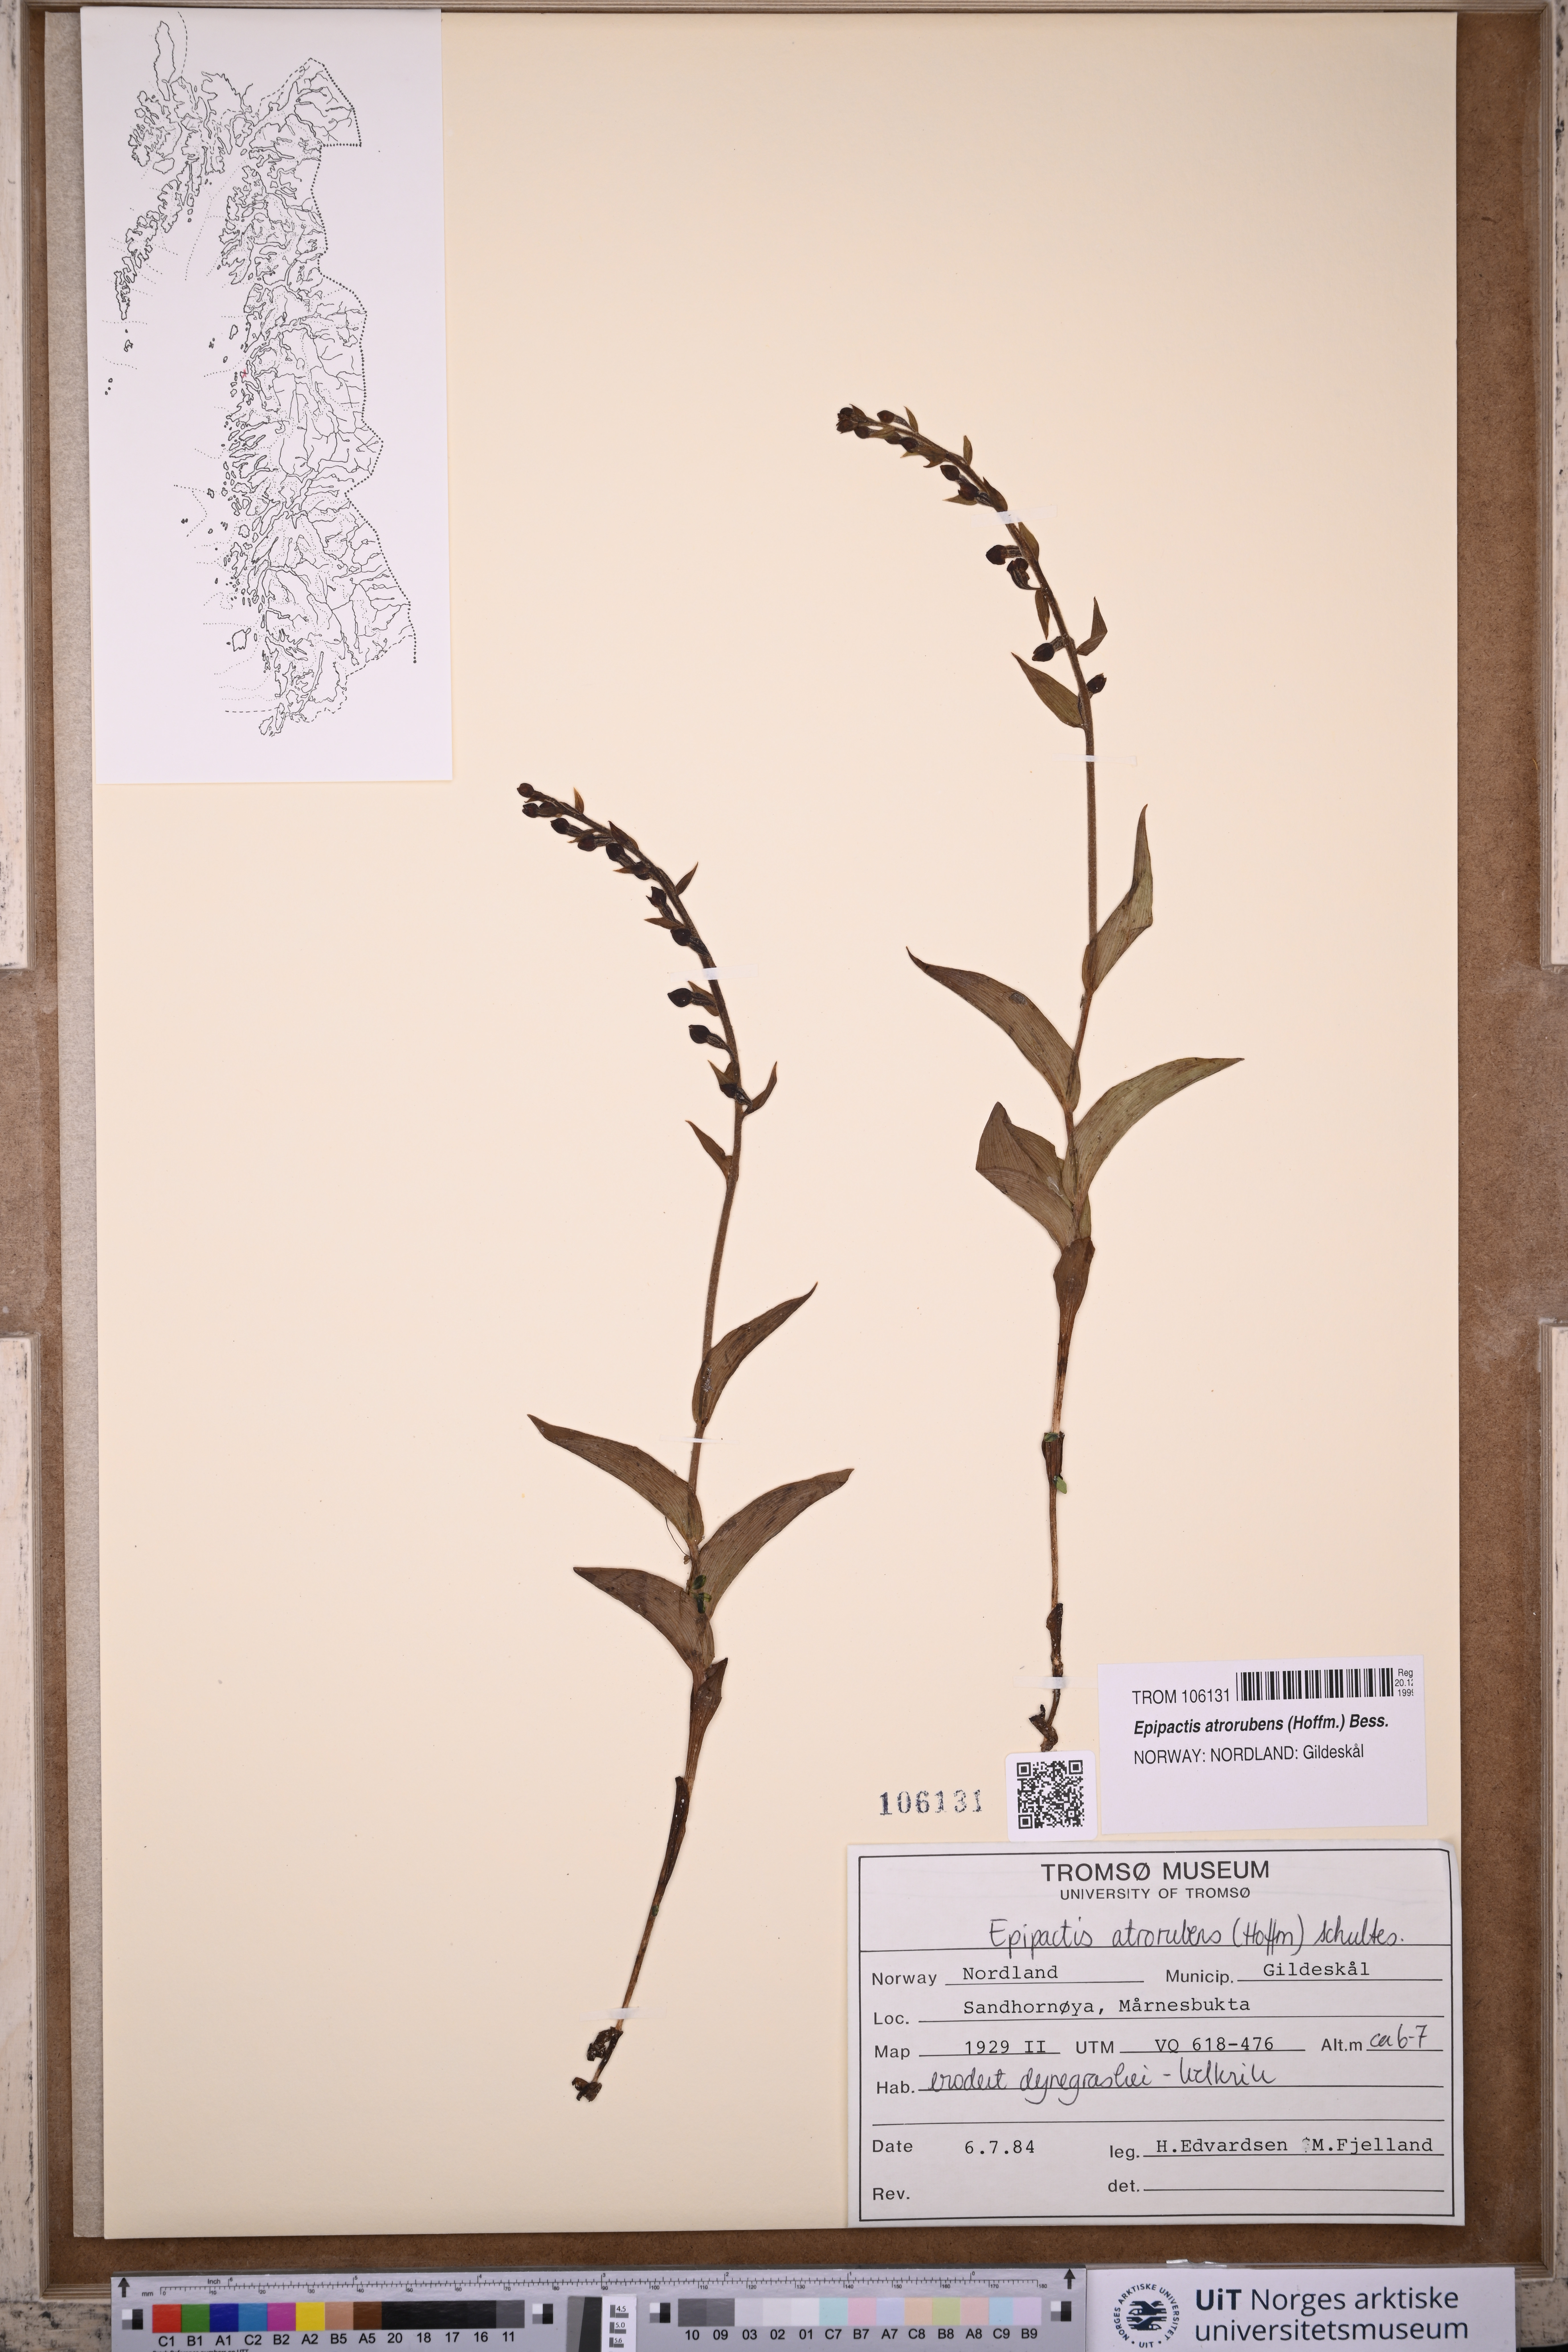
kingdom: Plantae
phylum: Tracheophyta
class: Liliopsida
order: Asparagales
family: Orchidaceae
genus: Epipactis
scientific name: Epipactis atrorubens
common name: Dark-red helleborine
